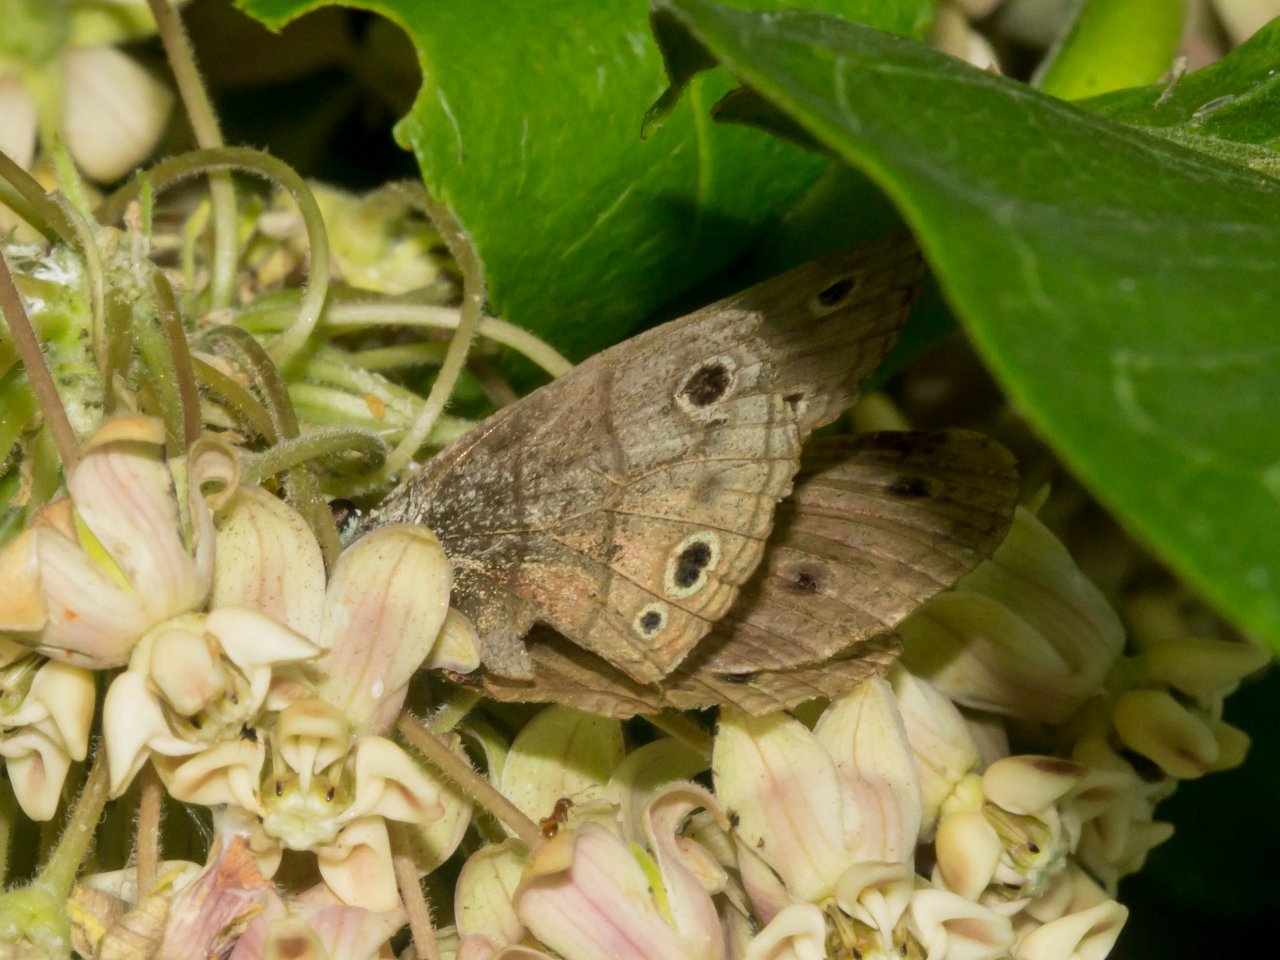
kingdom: Animalia
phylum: Arthropoda
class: Insecta
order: Lepidoptera
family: Nymphalidae
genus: Euptychia
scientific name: Euptychia cymela
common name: Little Wood Satyr
